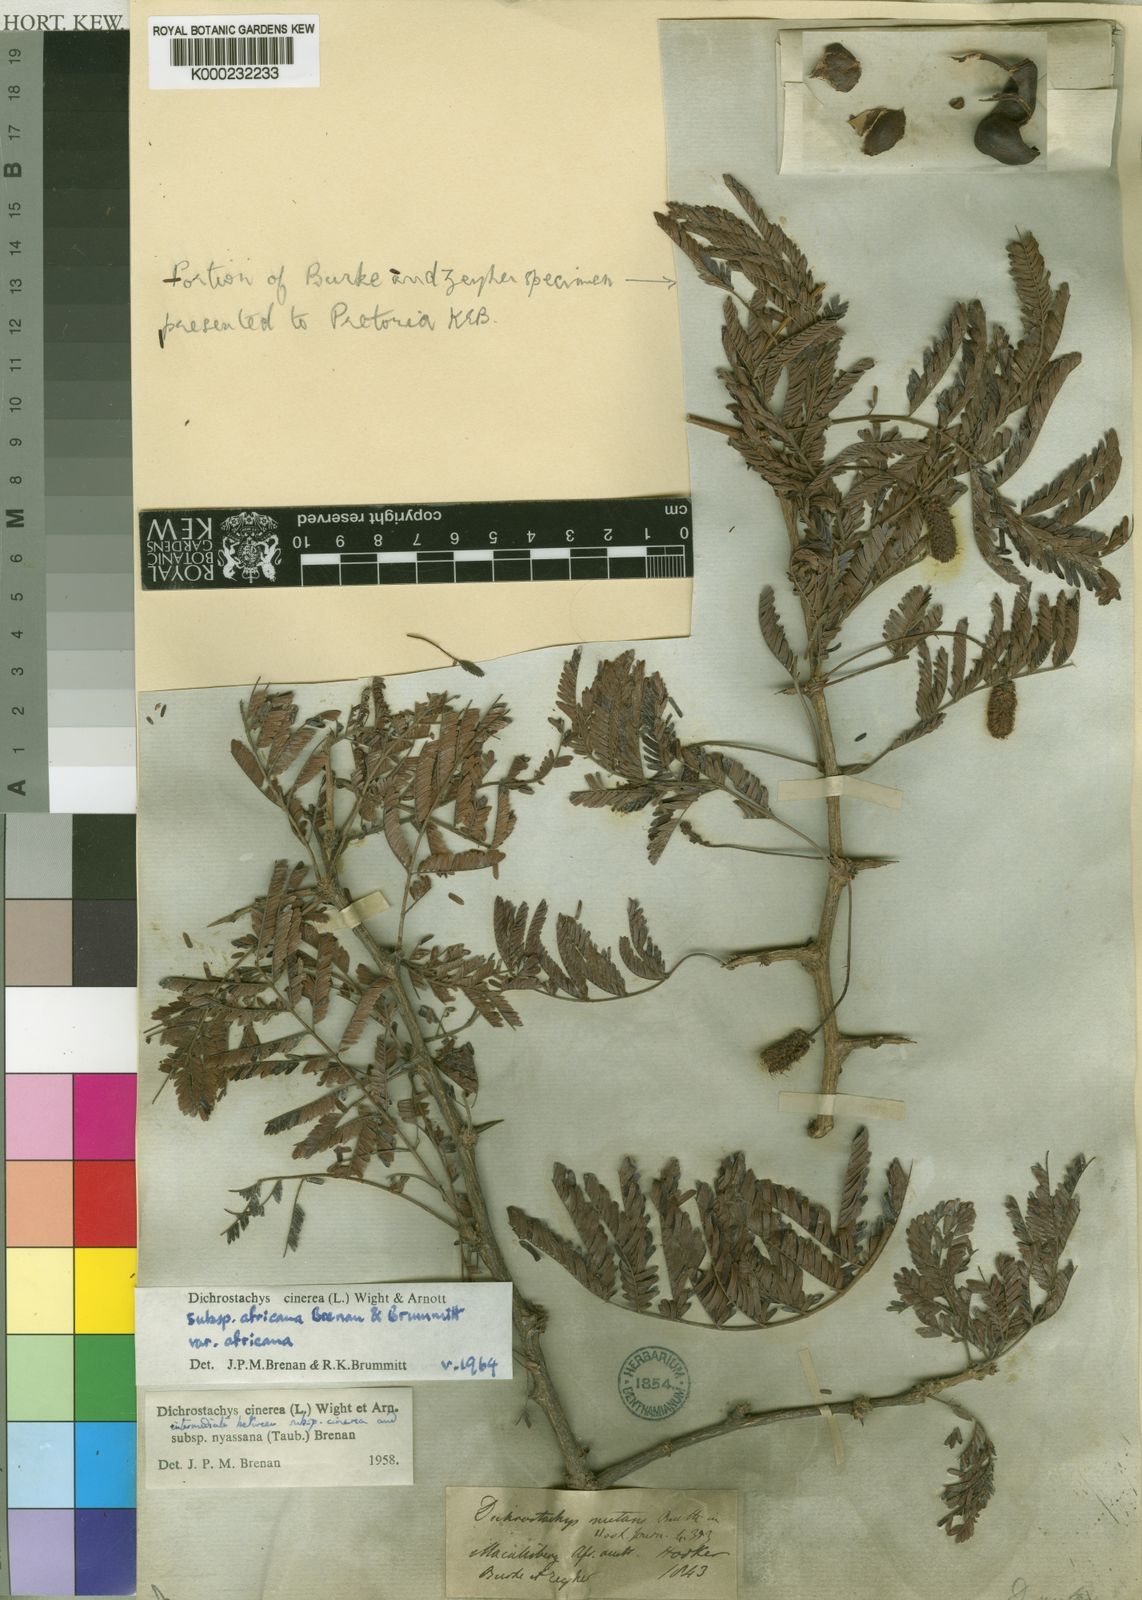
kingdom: Plantae
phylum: Tracheophyta
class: Magnoliopsida
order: Fabales
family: Fabaceae
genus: Dichrostachys
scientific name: Dichrostachys cinerea
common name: Sicklebush
